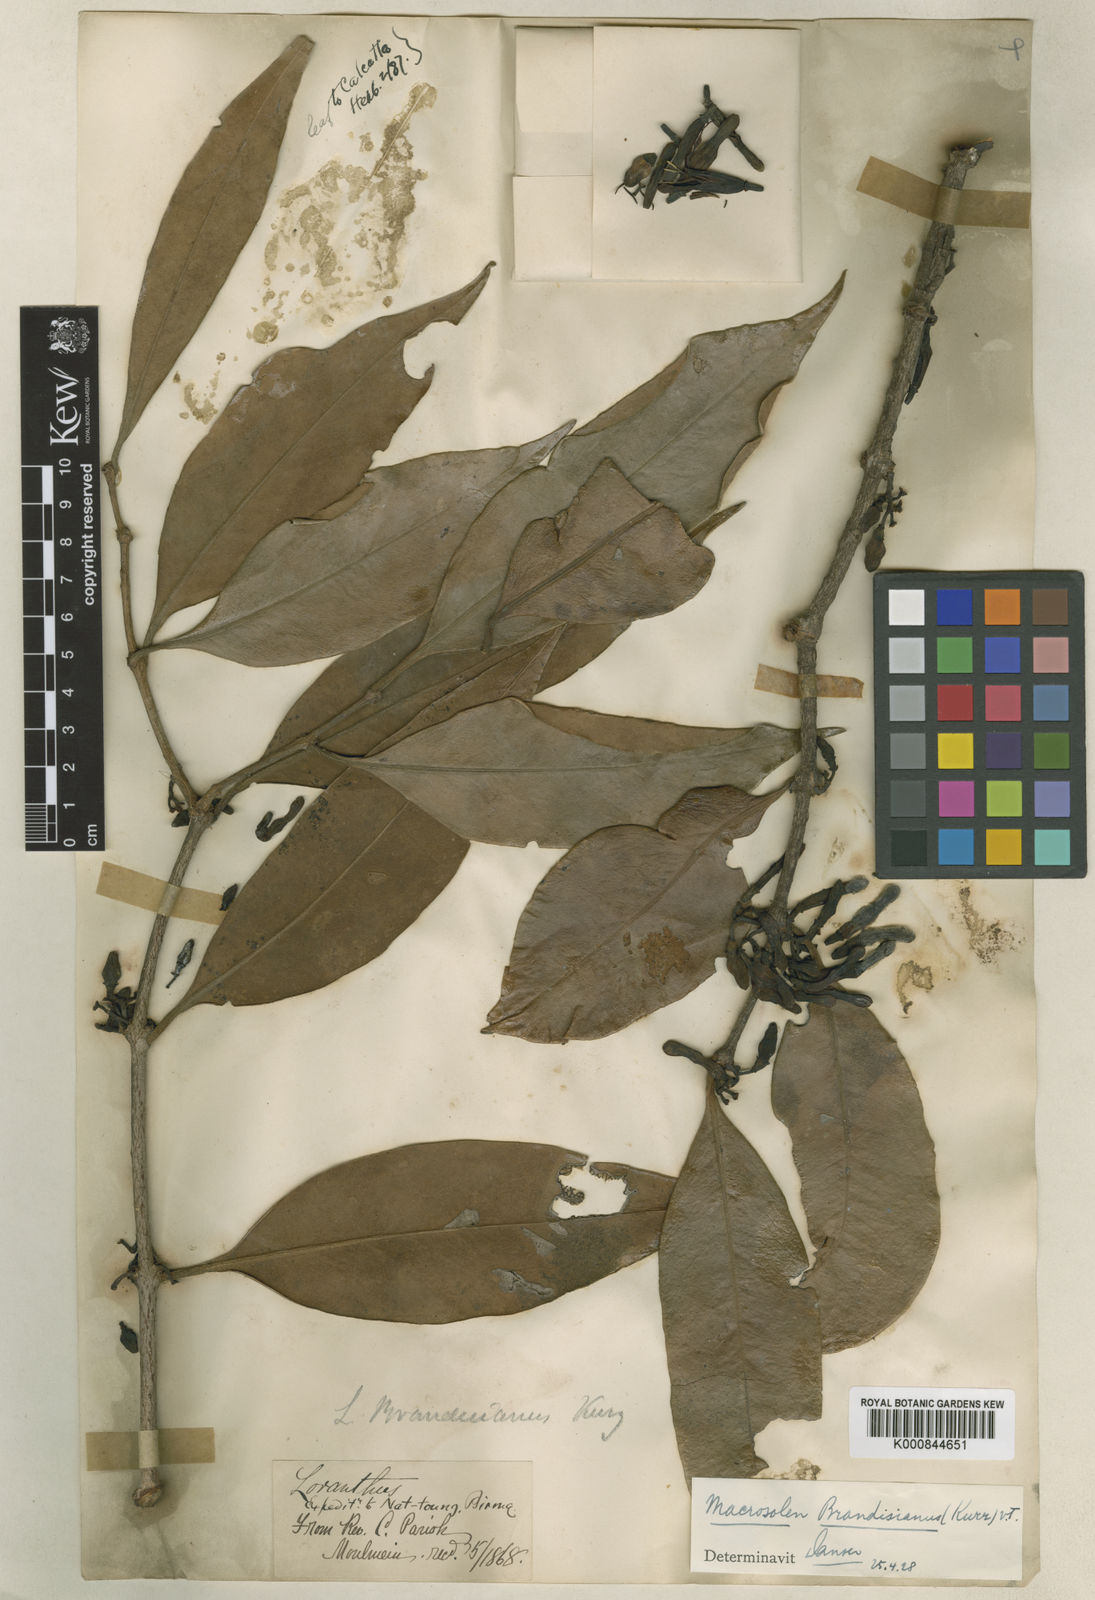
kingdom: Plantae
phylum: Tracheophyta
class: Magnoliopsida
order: Santalales
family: Loranthaceae
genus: Macrosolen
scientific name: Macrosolen brandisianus
